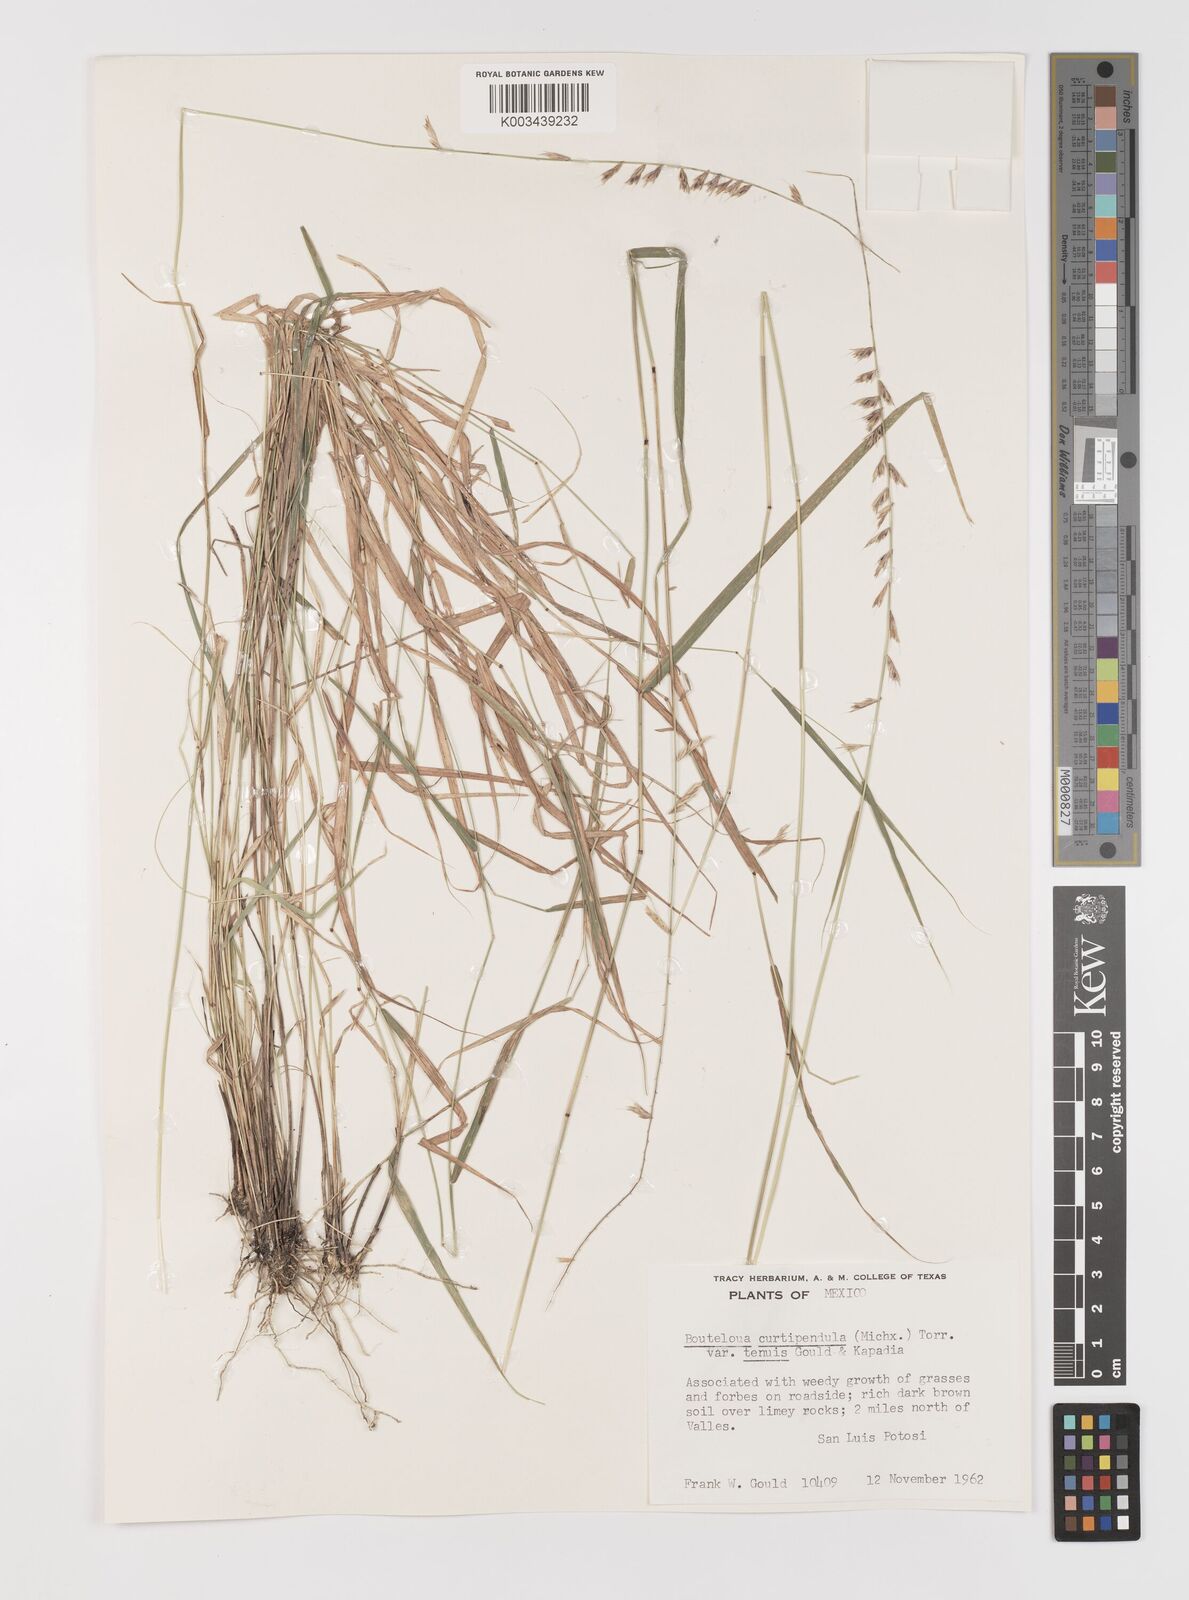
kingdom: Plantae
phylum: Tracheophyta
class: Liliopsida
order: Poales
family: Poaceae
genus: Bouteloua
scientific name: Bouteloua curtipendula
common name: Side-oats grama
